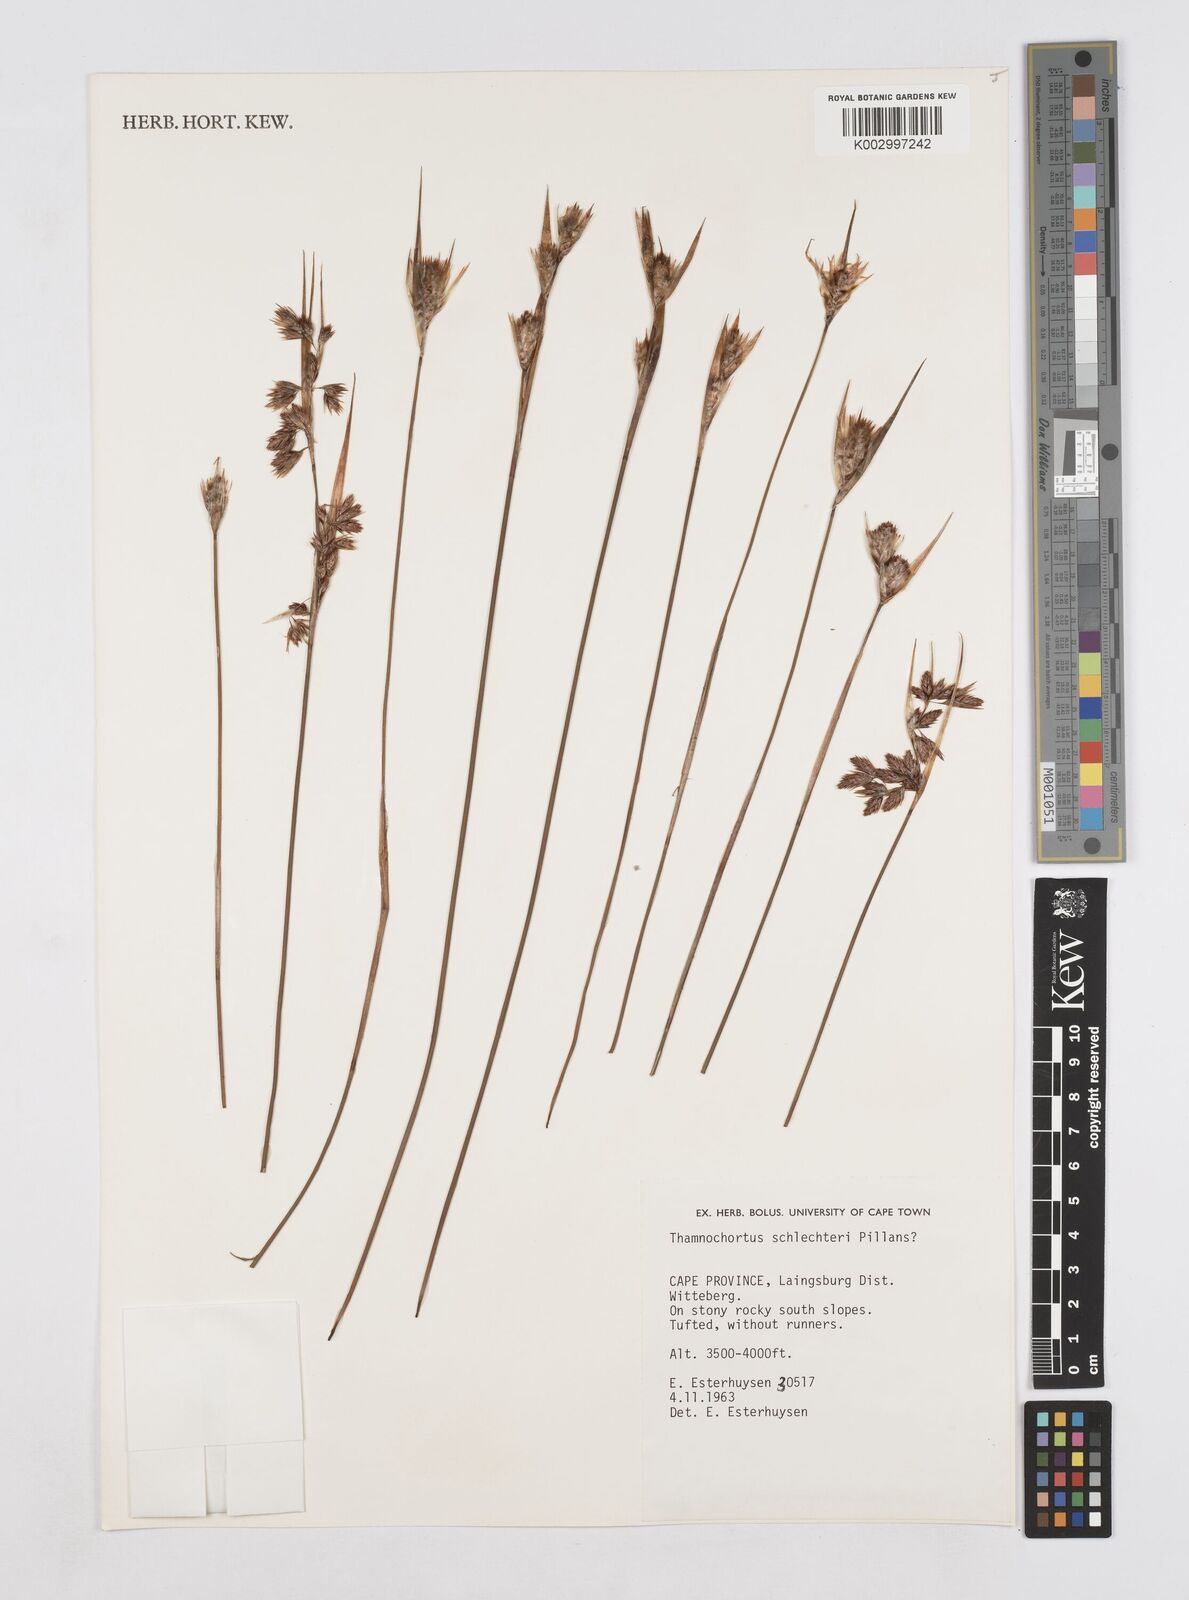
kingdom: Plantae
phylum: Tracheophyta
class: Liliopsida
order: Poales
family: Restionaceae
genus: Thamnochortus
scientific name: Thamnochortus schlechteri
